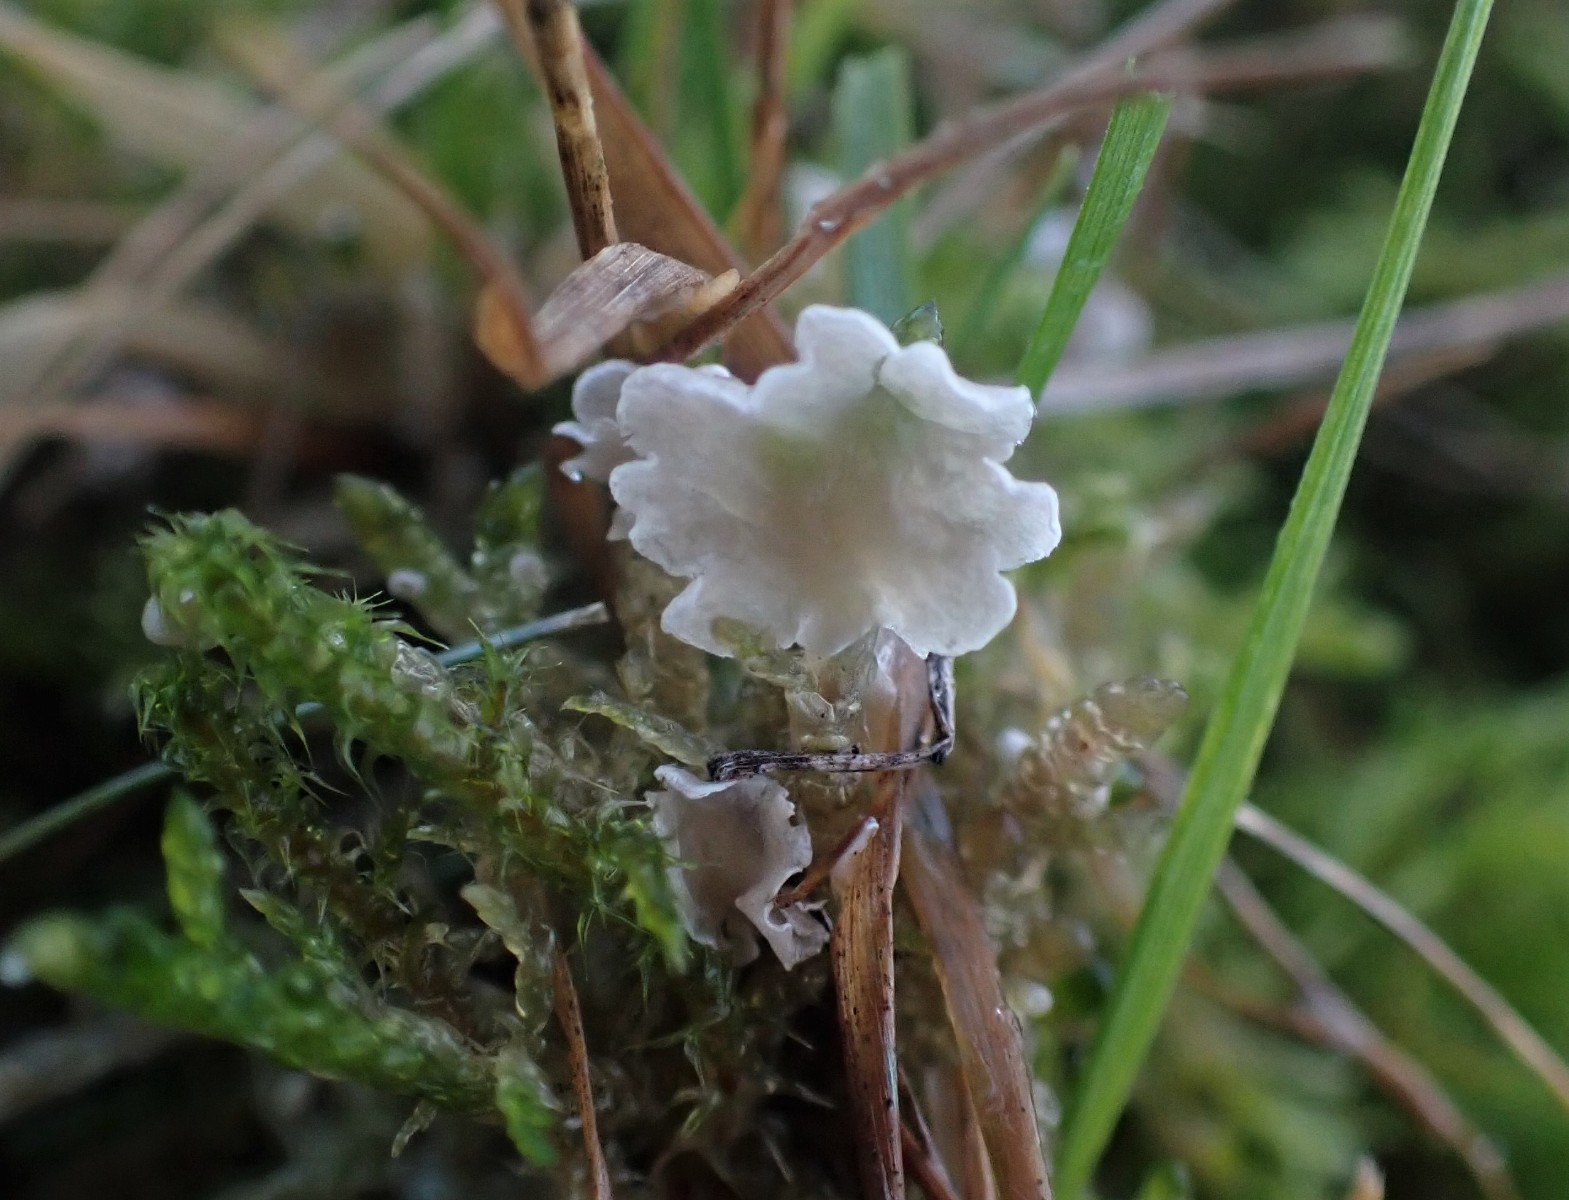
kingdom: Fungi
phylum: Basidiomycota
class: Agaricomycetes
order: Agaricales
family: Hygrophoraceae
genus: Arrhenia
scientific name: Arrhenia retiruga
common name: lille fontænehat
